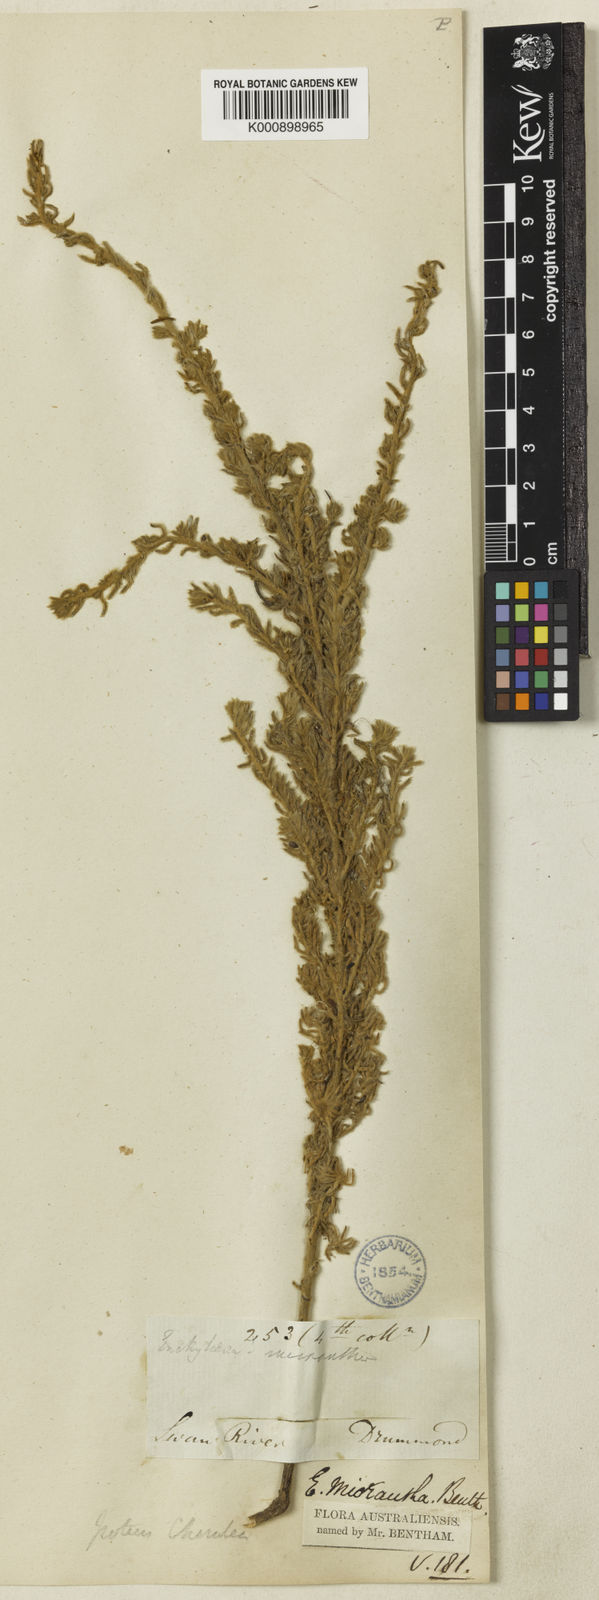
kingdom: Plantae
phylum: Tracheophyta
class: Magnoliopsida
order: Caryophyllales
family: Amaranthaceae
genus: Maireana
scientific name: Maireana
